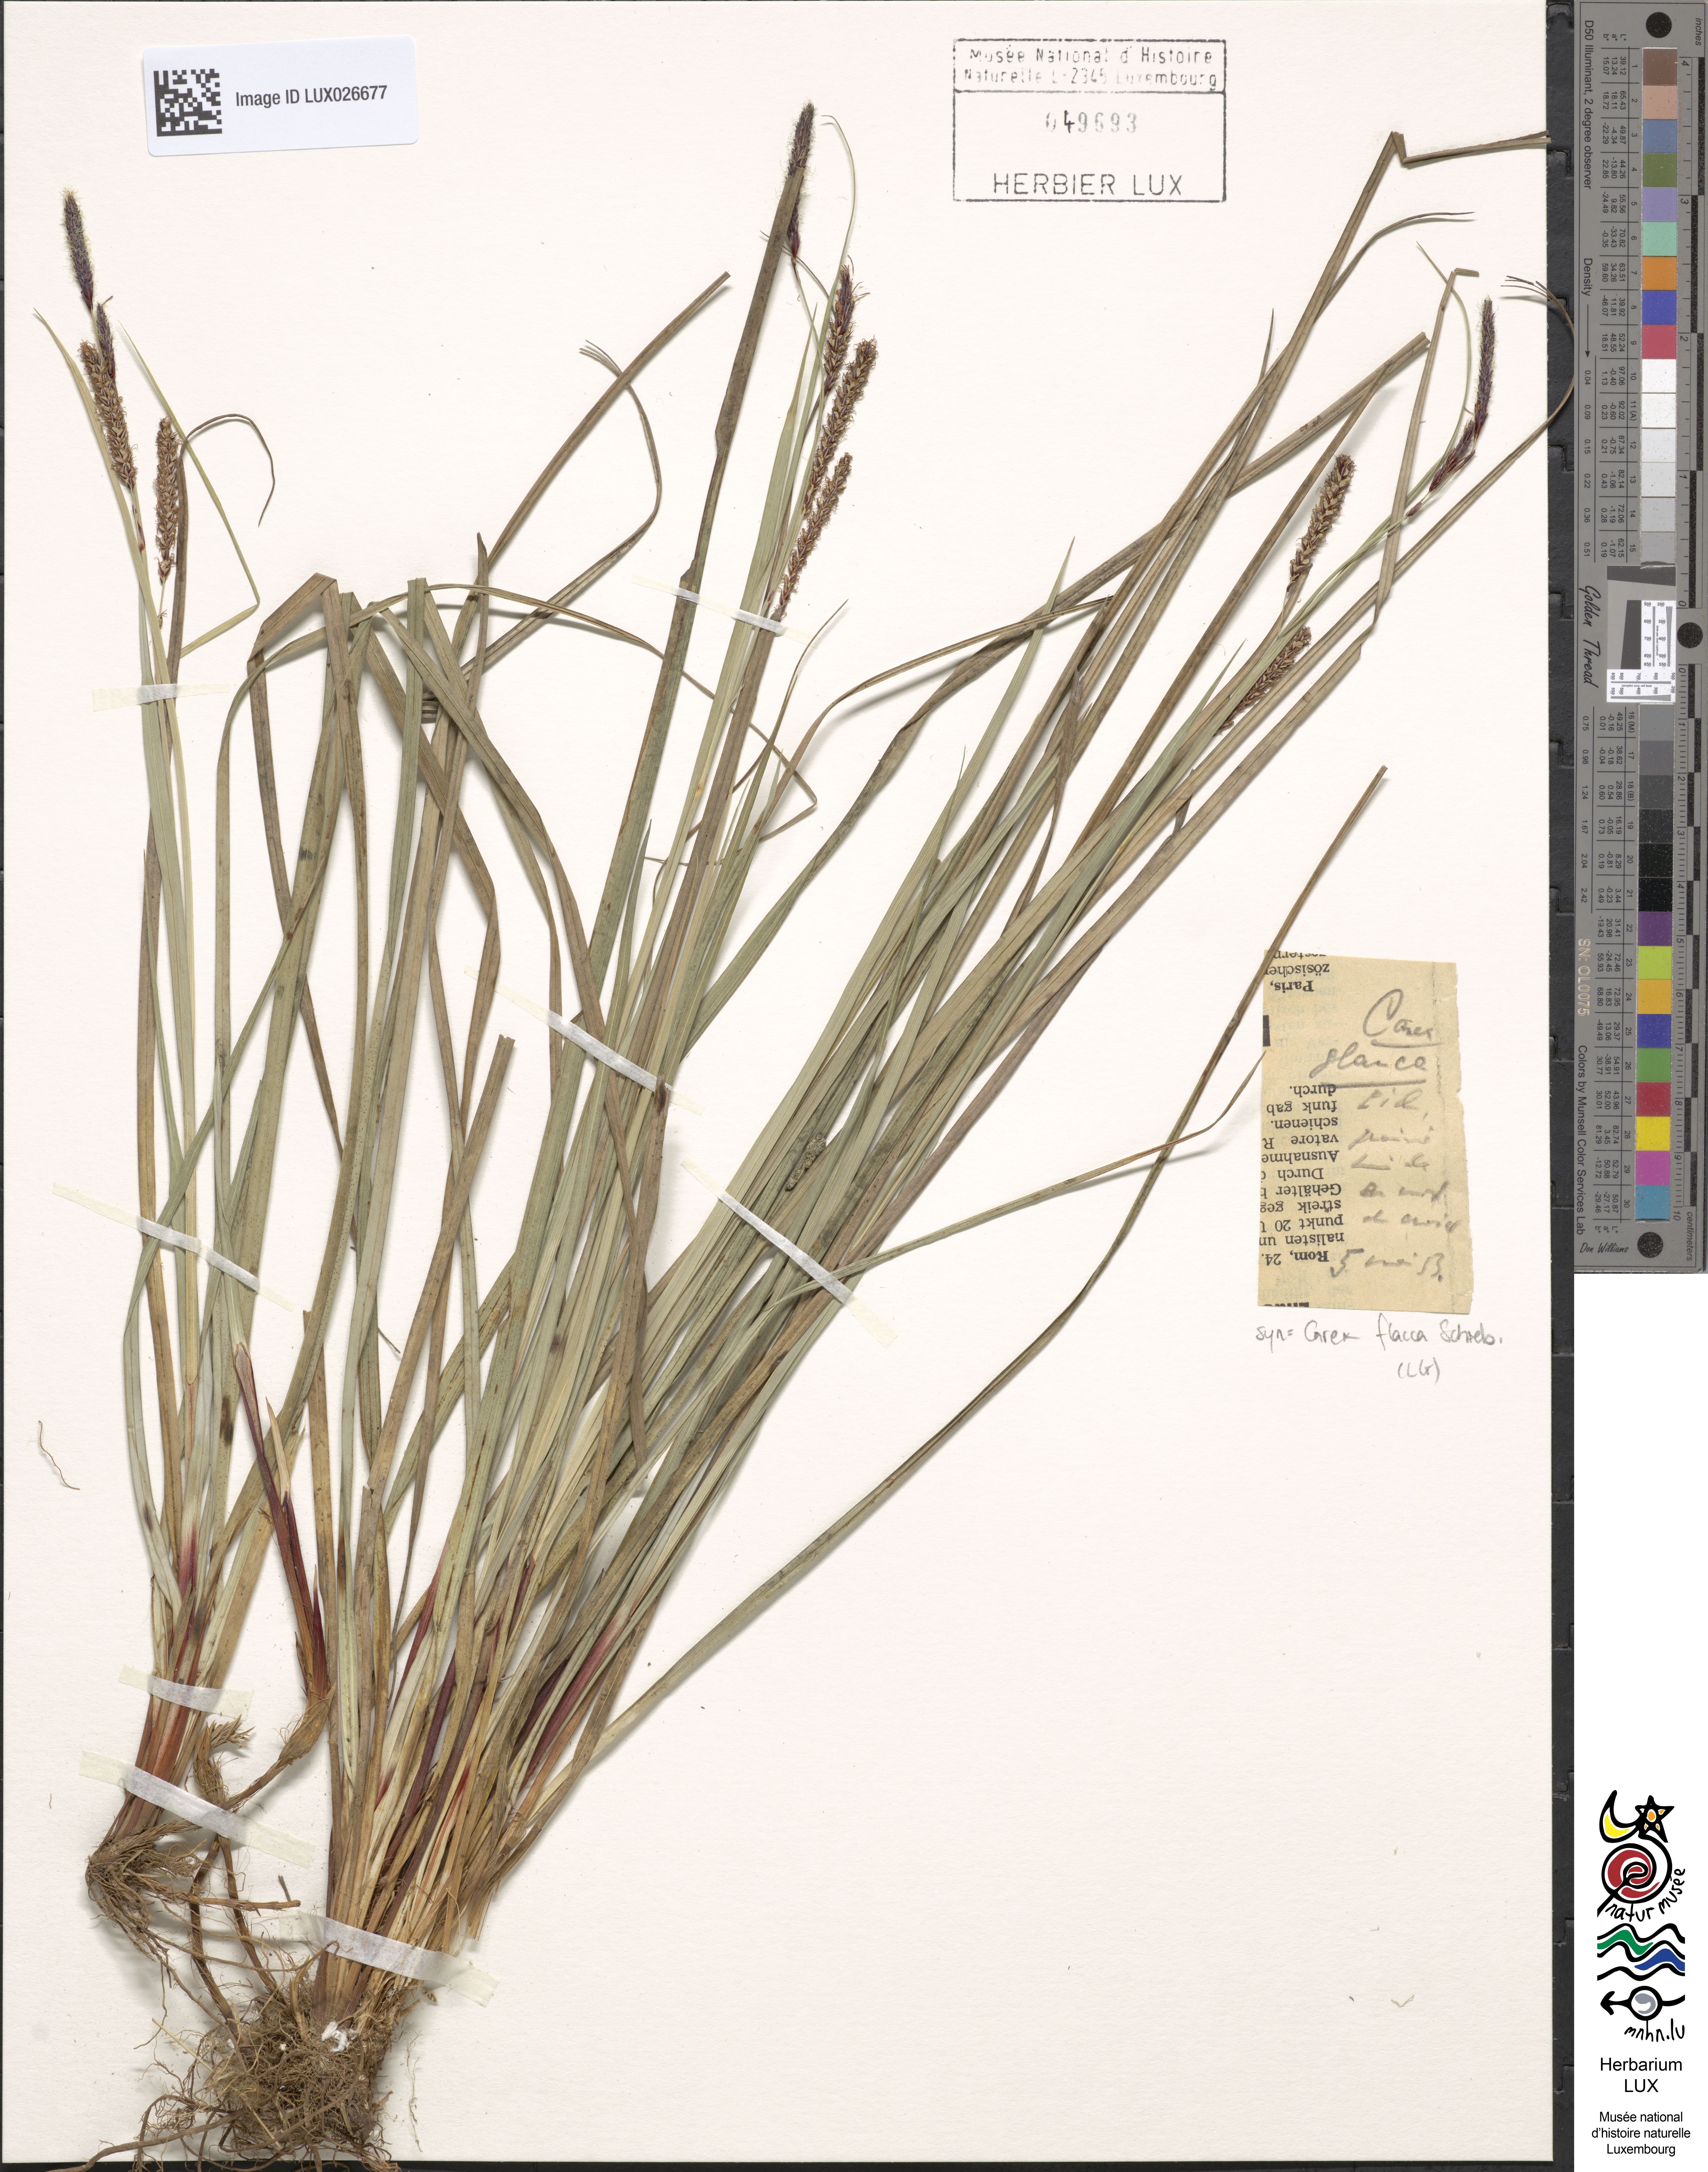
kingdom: Plantae
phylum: Tracheophyta
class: Liliopsida
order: Poales
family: Cyperaceae
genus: Carex
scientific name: Carex flacca
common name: Glaucous sedge
